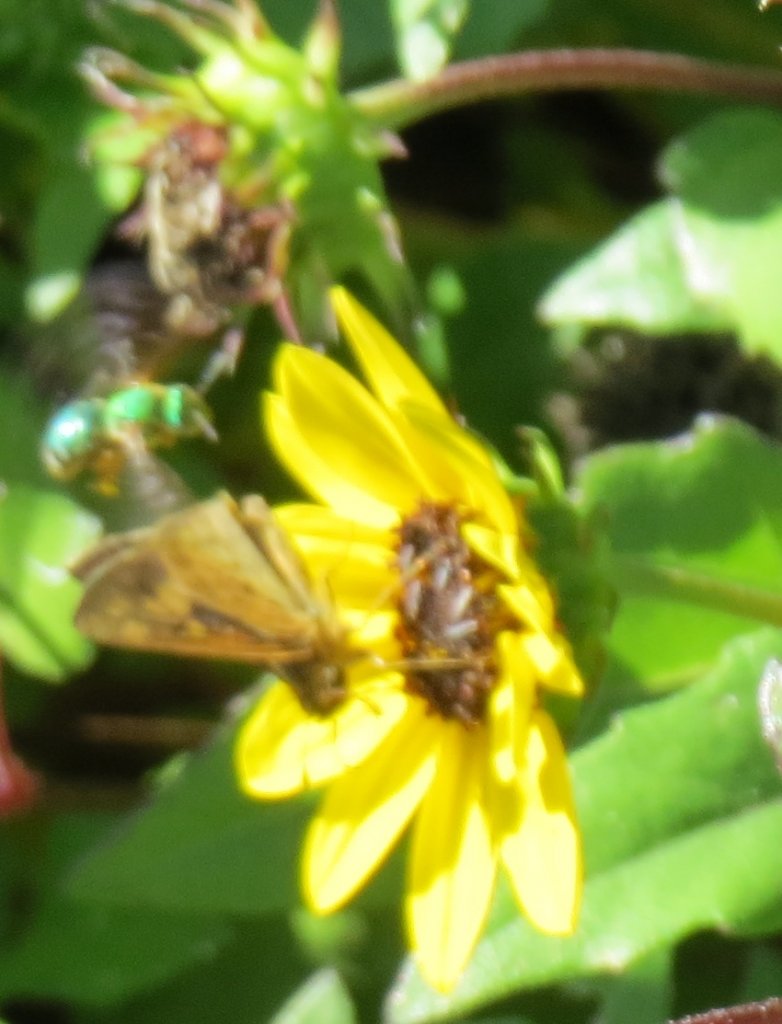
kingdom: Animalia
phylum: Arthropoda
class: Insecta
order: Lepidoptera
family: Hesperiidae
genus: Hylephila
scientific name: Hylephila phyleus
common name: Fiery Skipper
